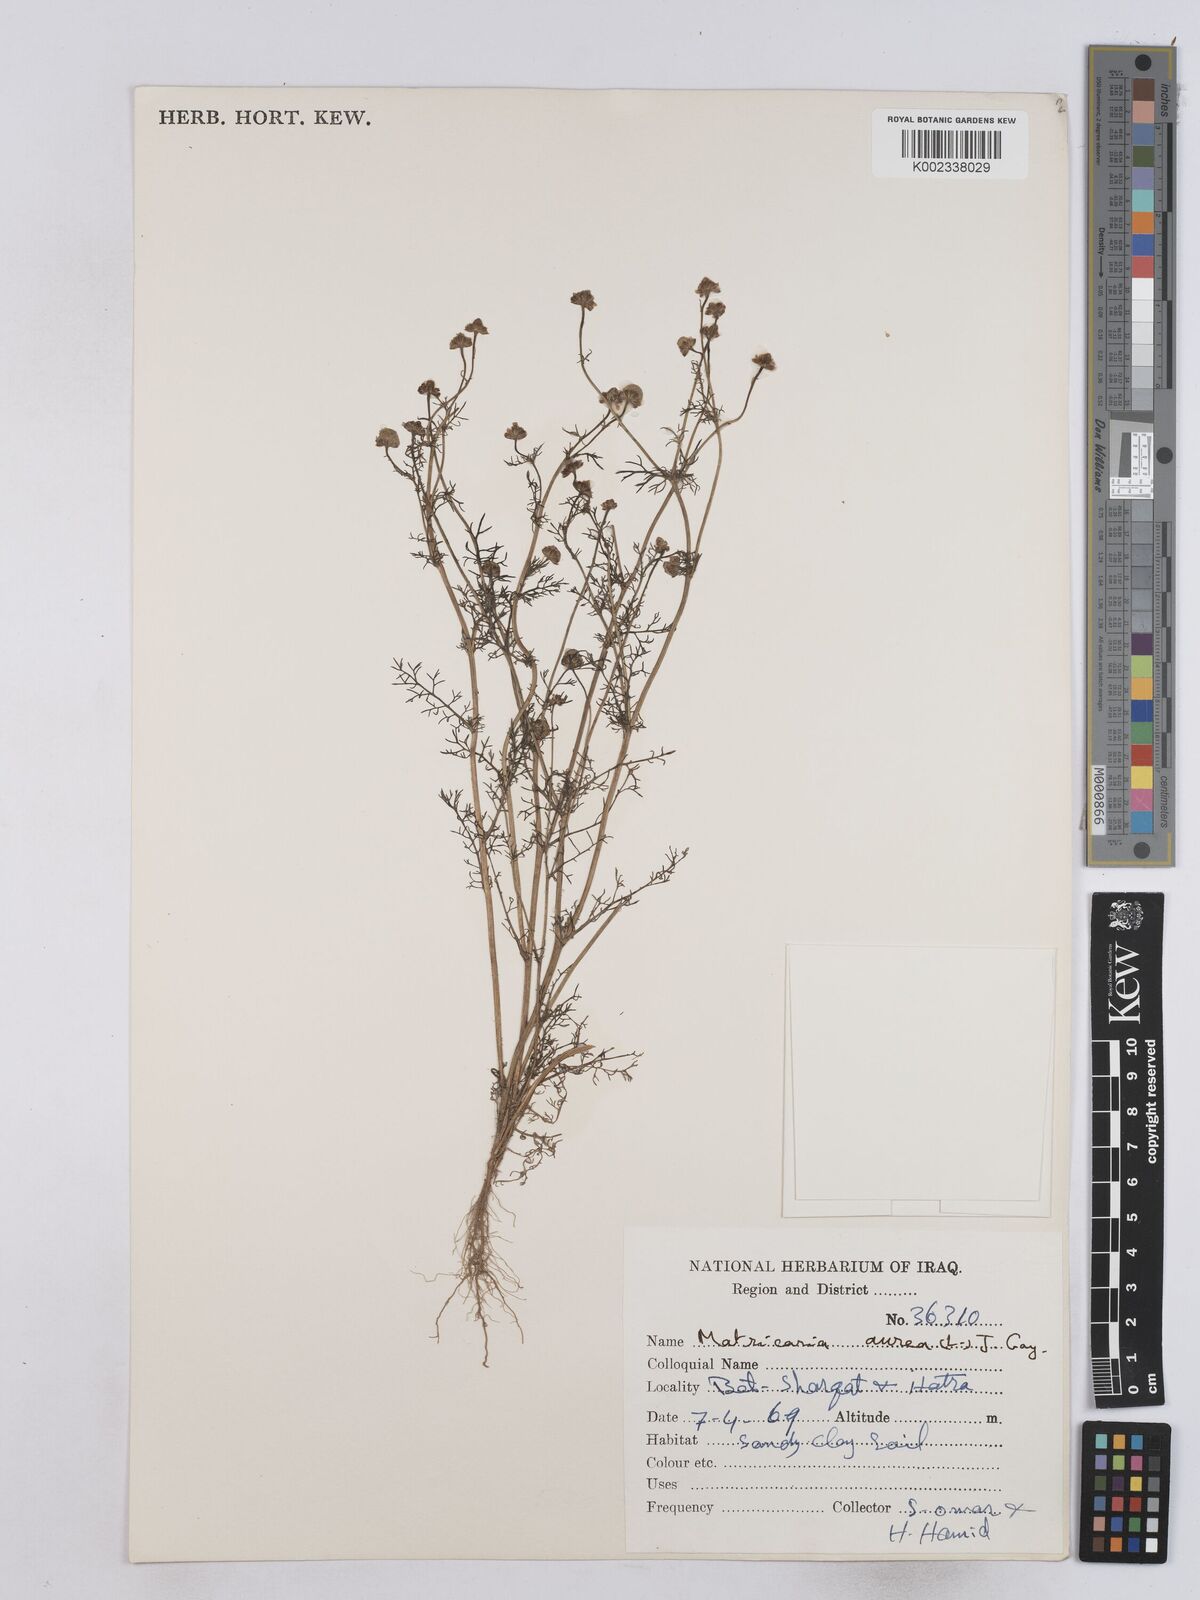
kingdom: Plantae
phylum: Tracheophyta
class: Magnoliopsida
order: Asterales
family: Asteraceae
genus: Matricaria
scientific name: Matricaria aurea
